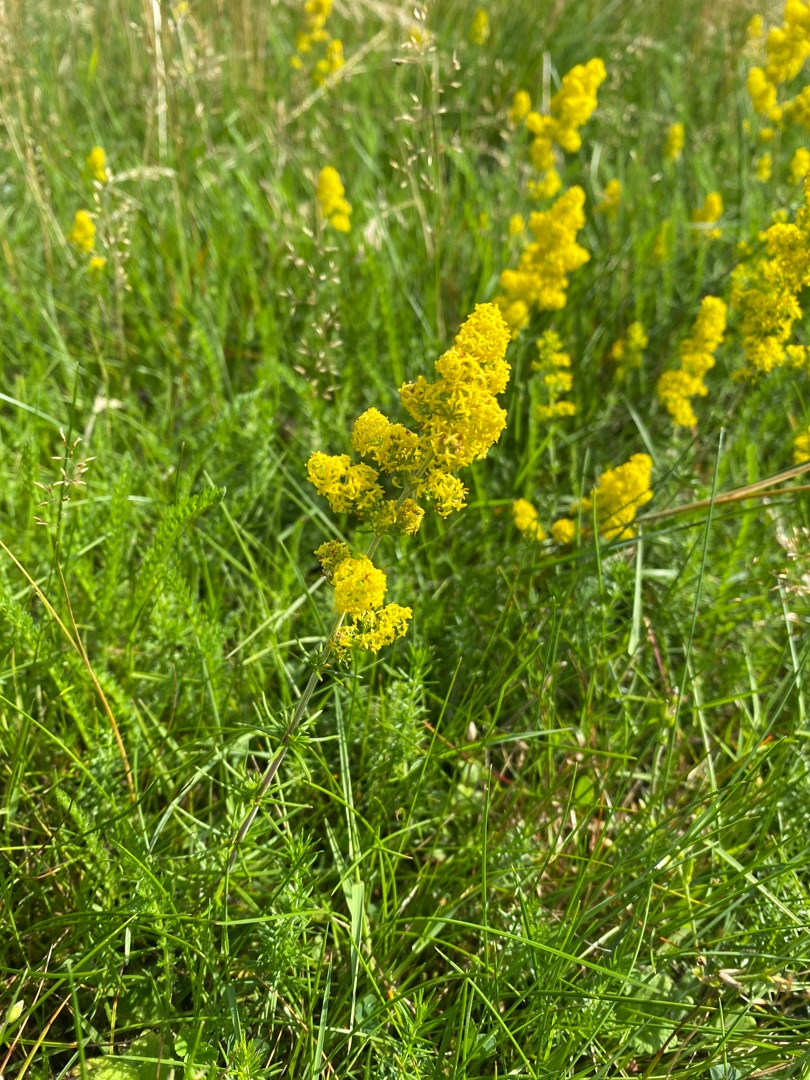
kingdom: Plantae
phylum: Tracheophyta
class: Magnoliopsida
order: Gentianales
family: Rubiaceae
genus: Galium
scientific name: Galium verum
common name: Gul snerre
